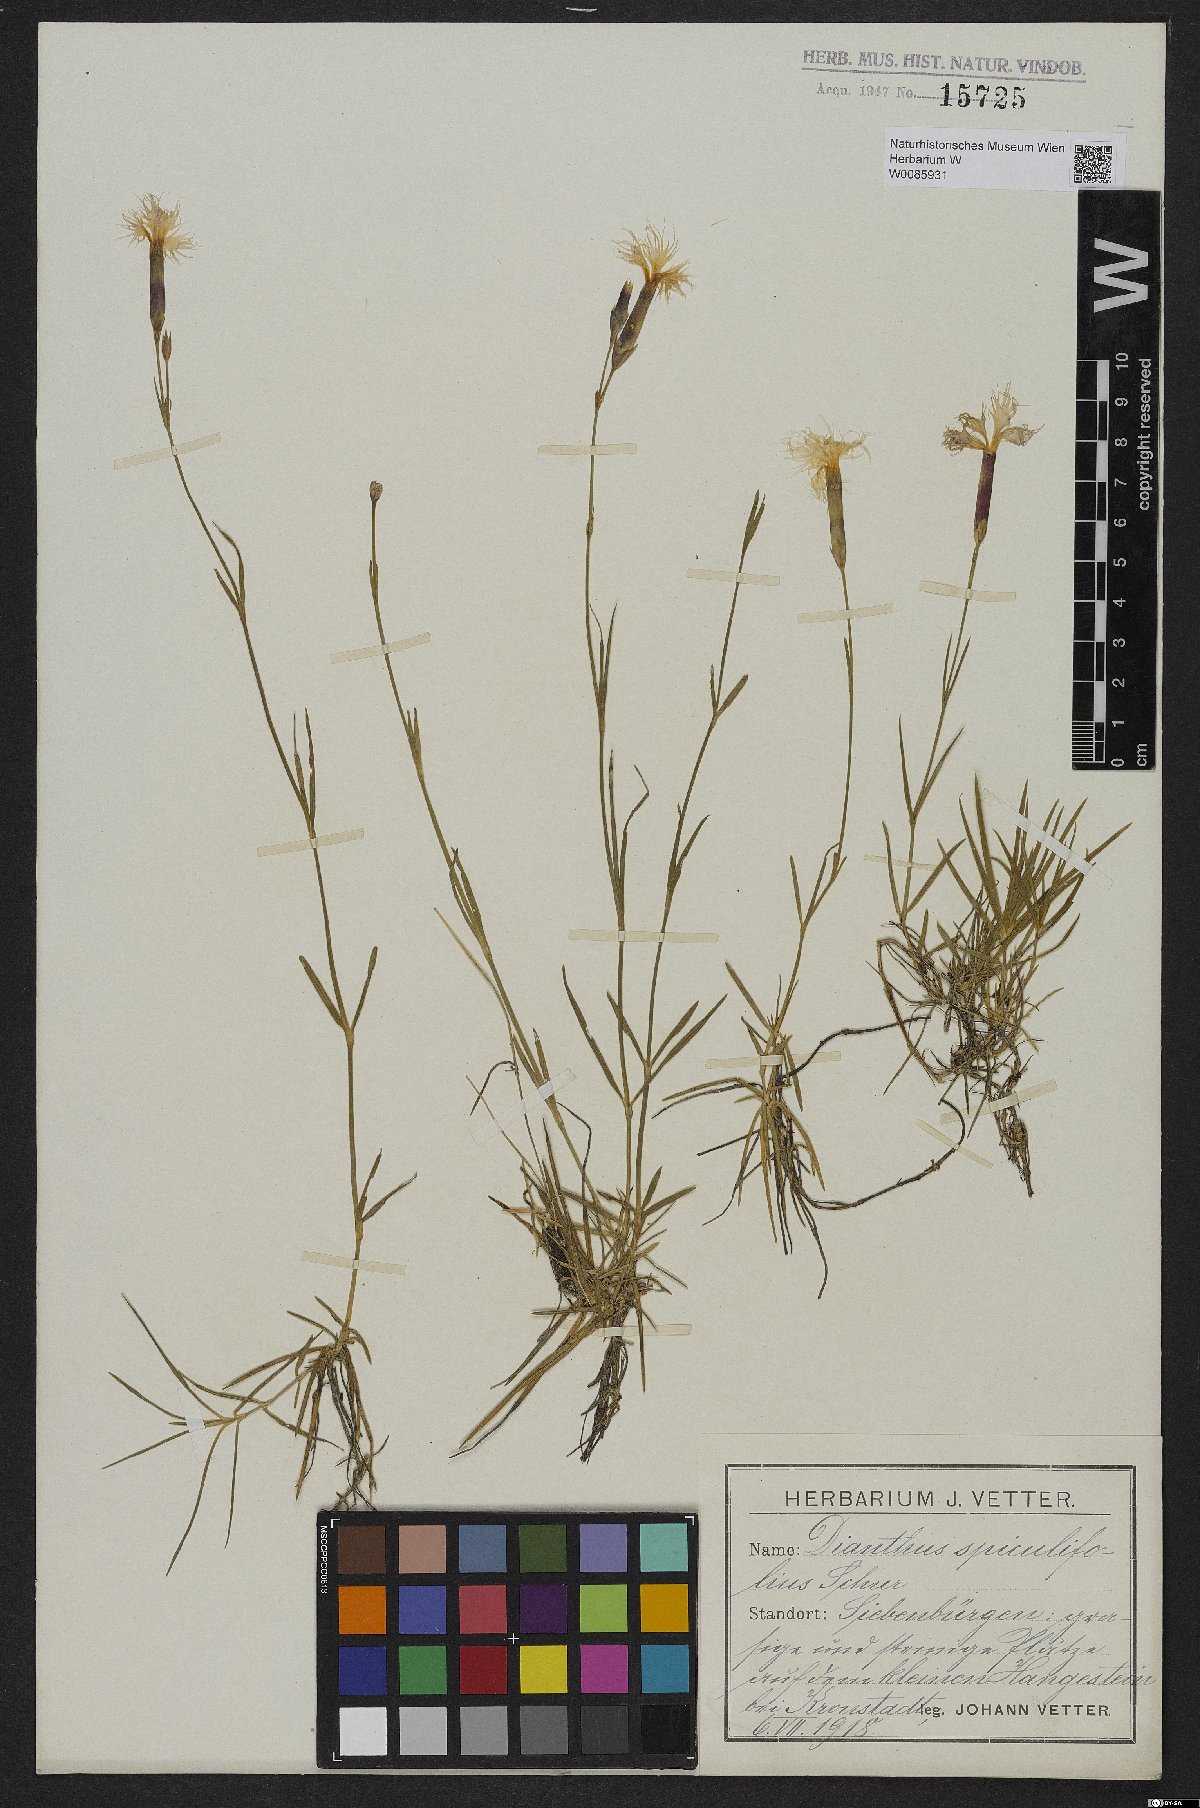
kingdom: Plantae
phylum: Tracheophyta
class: Magnoliopsida
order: Caryophyllales
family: Caryophyllaceae
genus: Dianthus
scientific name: Dianthus spiculifolius
